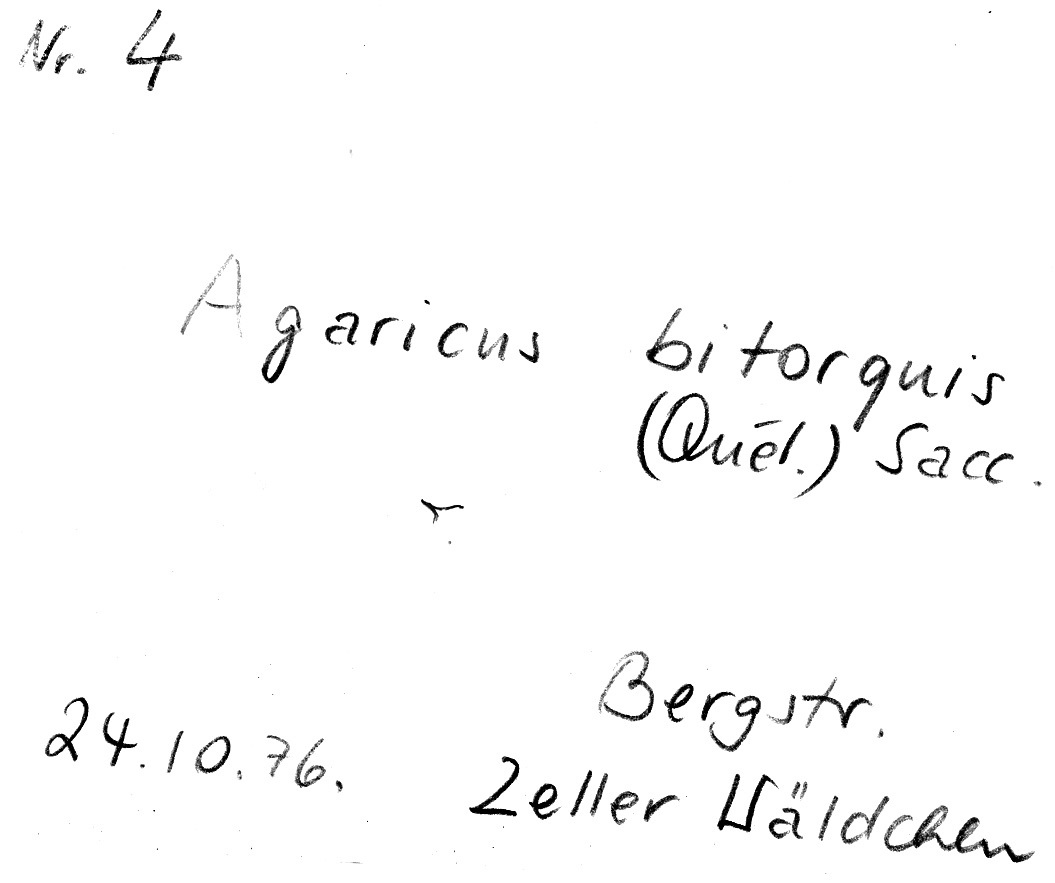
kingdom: Fungi
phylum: Basidiomycota
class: Agaricomycetes
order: Agaricales
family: Agaricaceae
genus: Agaricus
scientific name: Agaricus bitorquis
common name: Pavement mushroom
